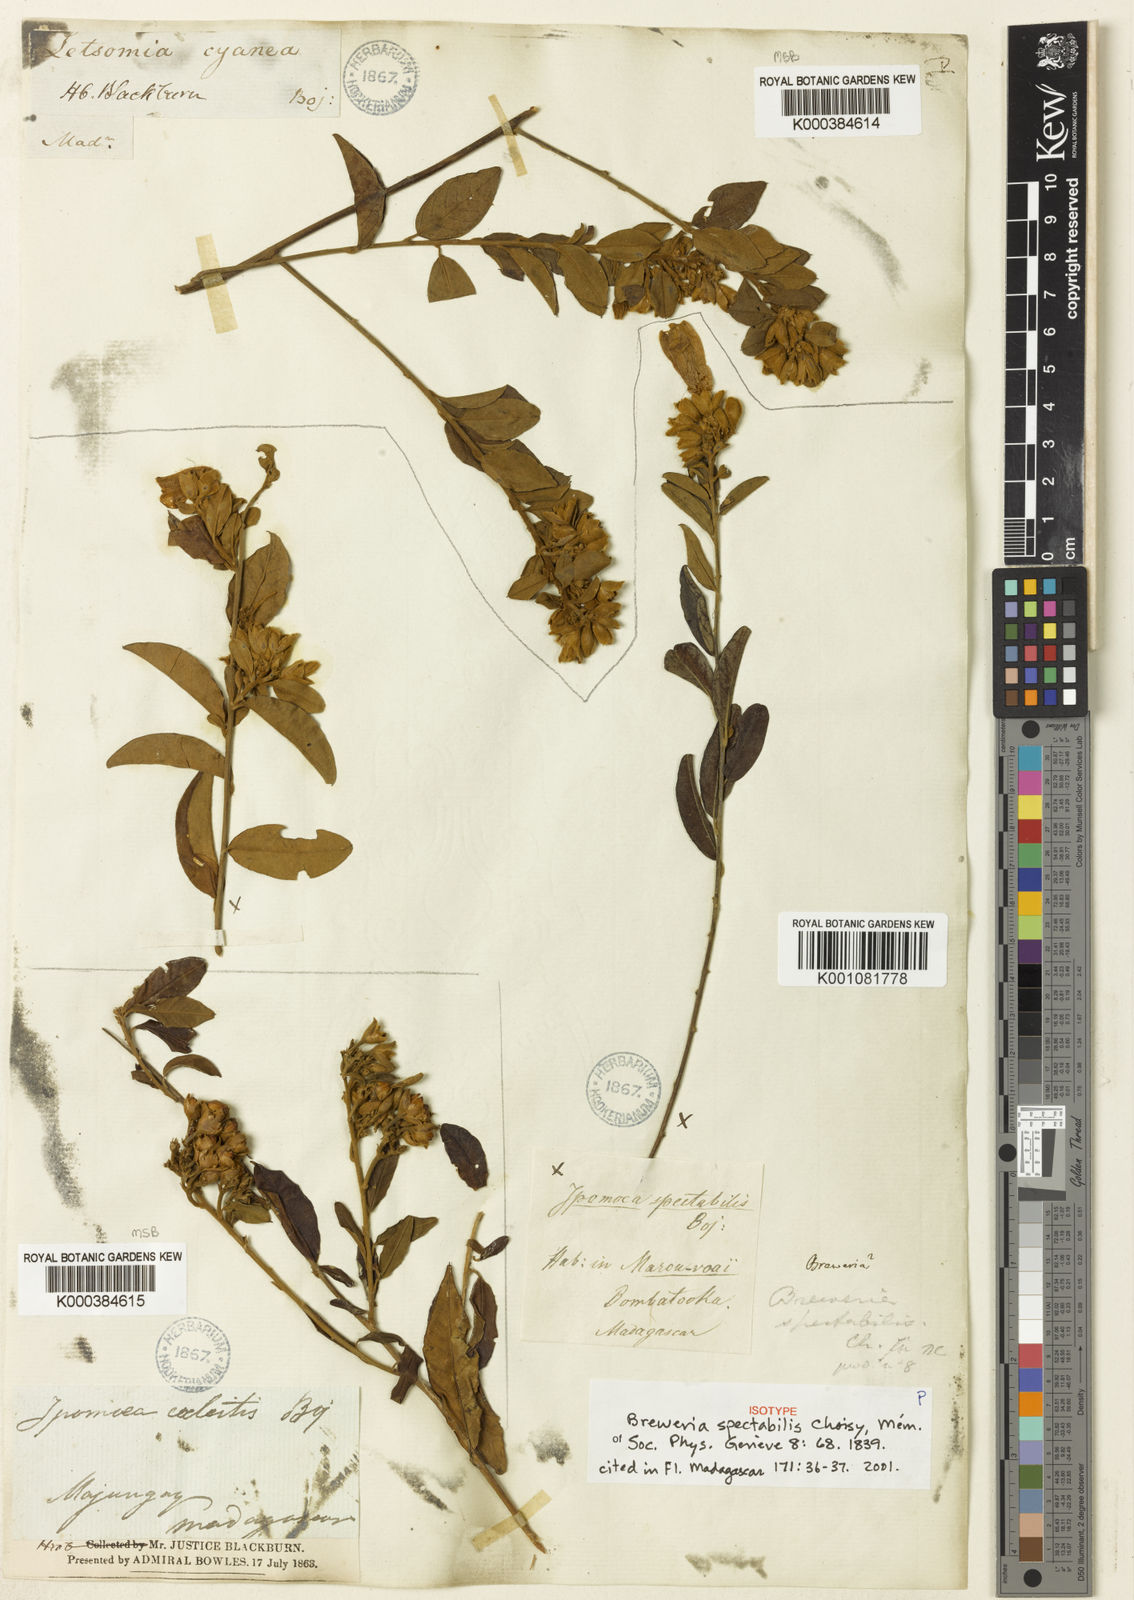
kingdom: Plantae
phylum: Tracheophyta
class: Magnoliopsida
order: Solanales
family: Convolvulaceae
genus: Bonamia
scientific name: Bonamia spectabilis
